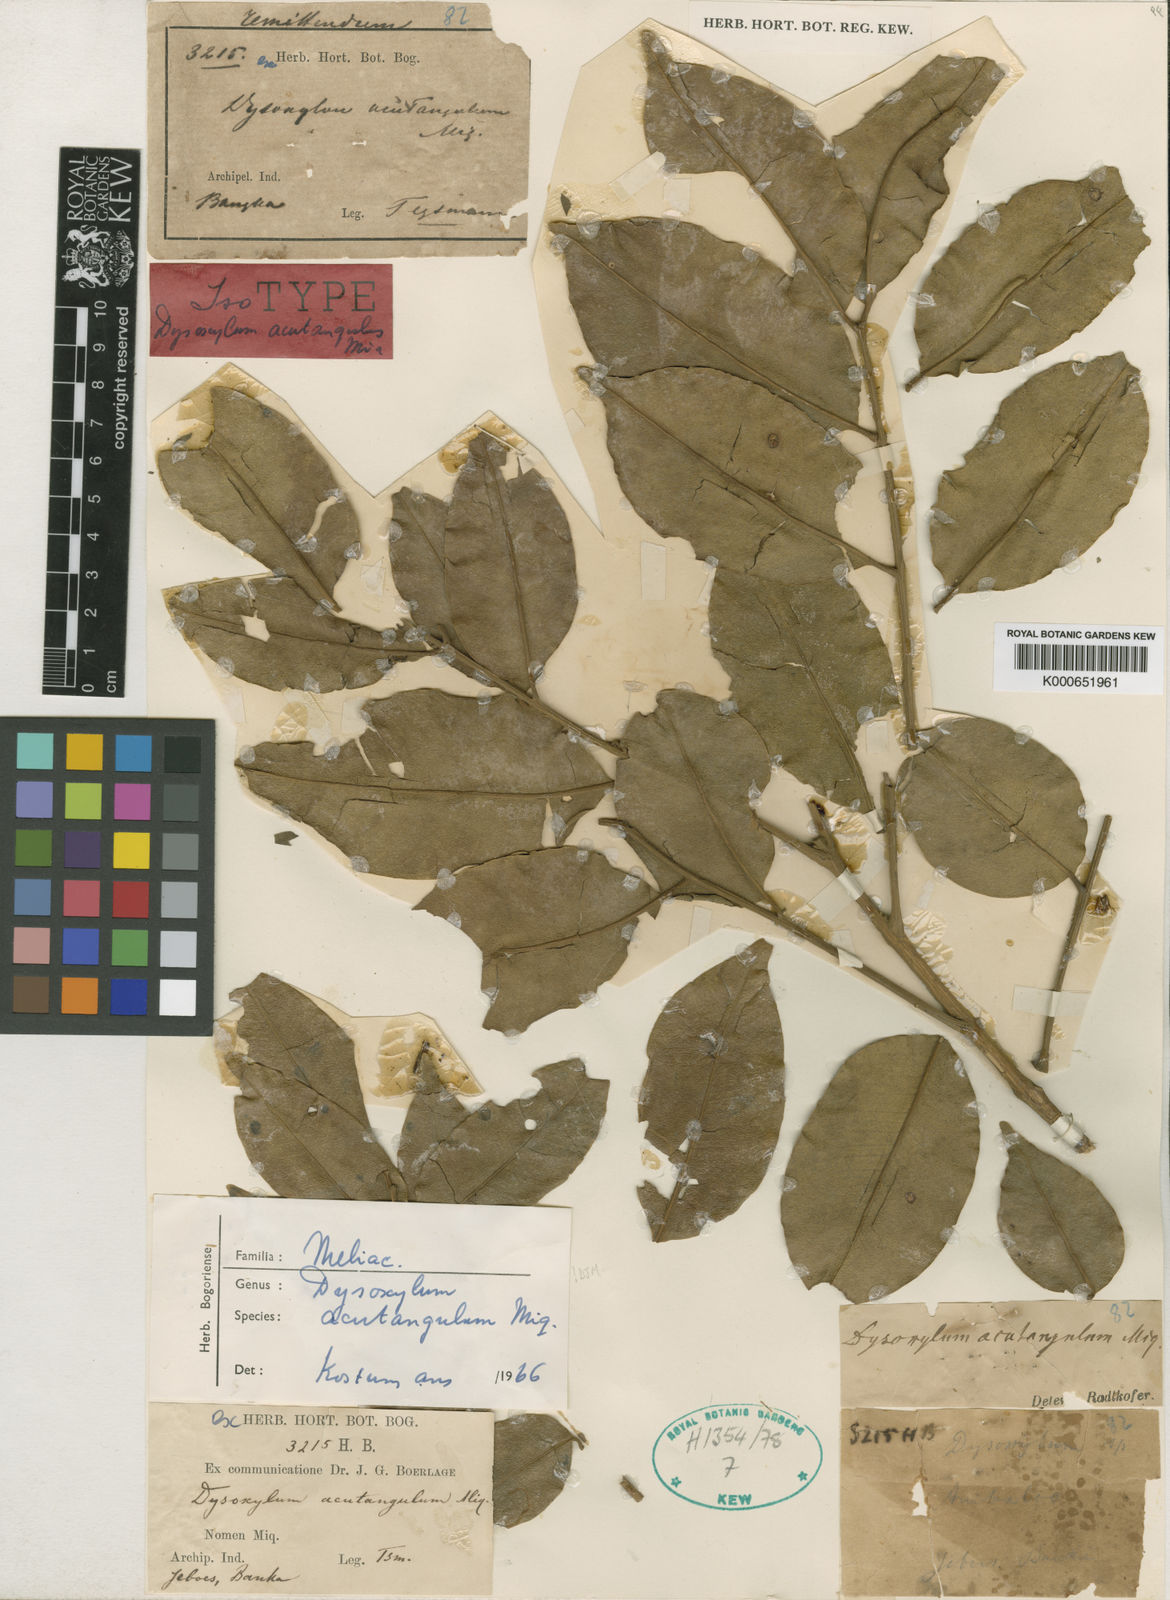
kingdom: Plantae
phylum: Tracheophyta
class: Magnoliopsida
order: Sapindales
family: Meliaceae
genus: Dysoxylum
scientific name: Dysoxylum acutangulum
